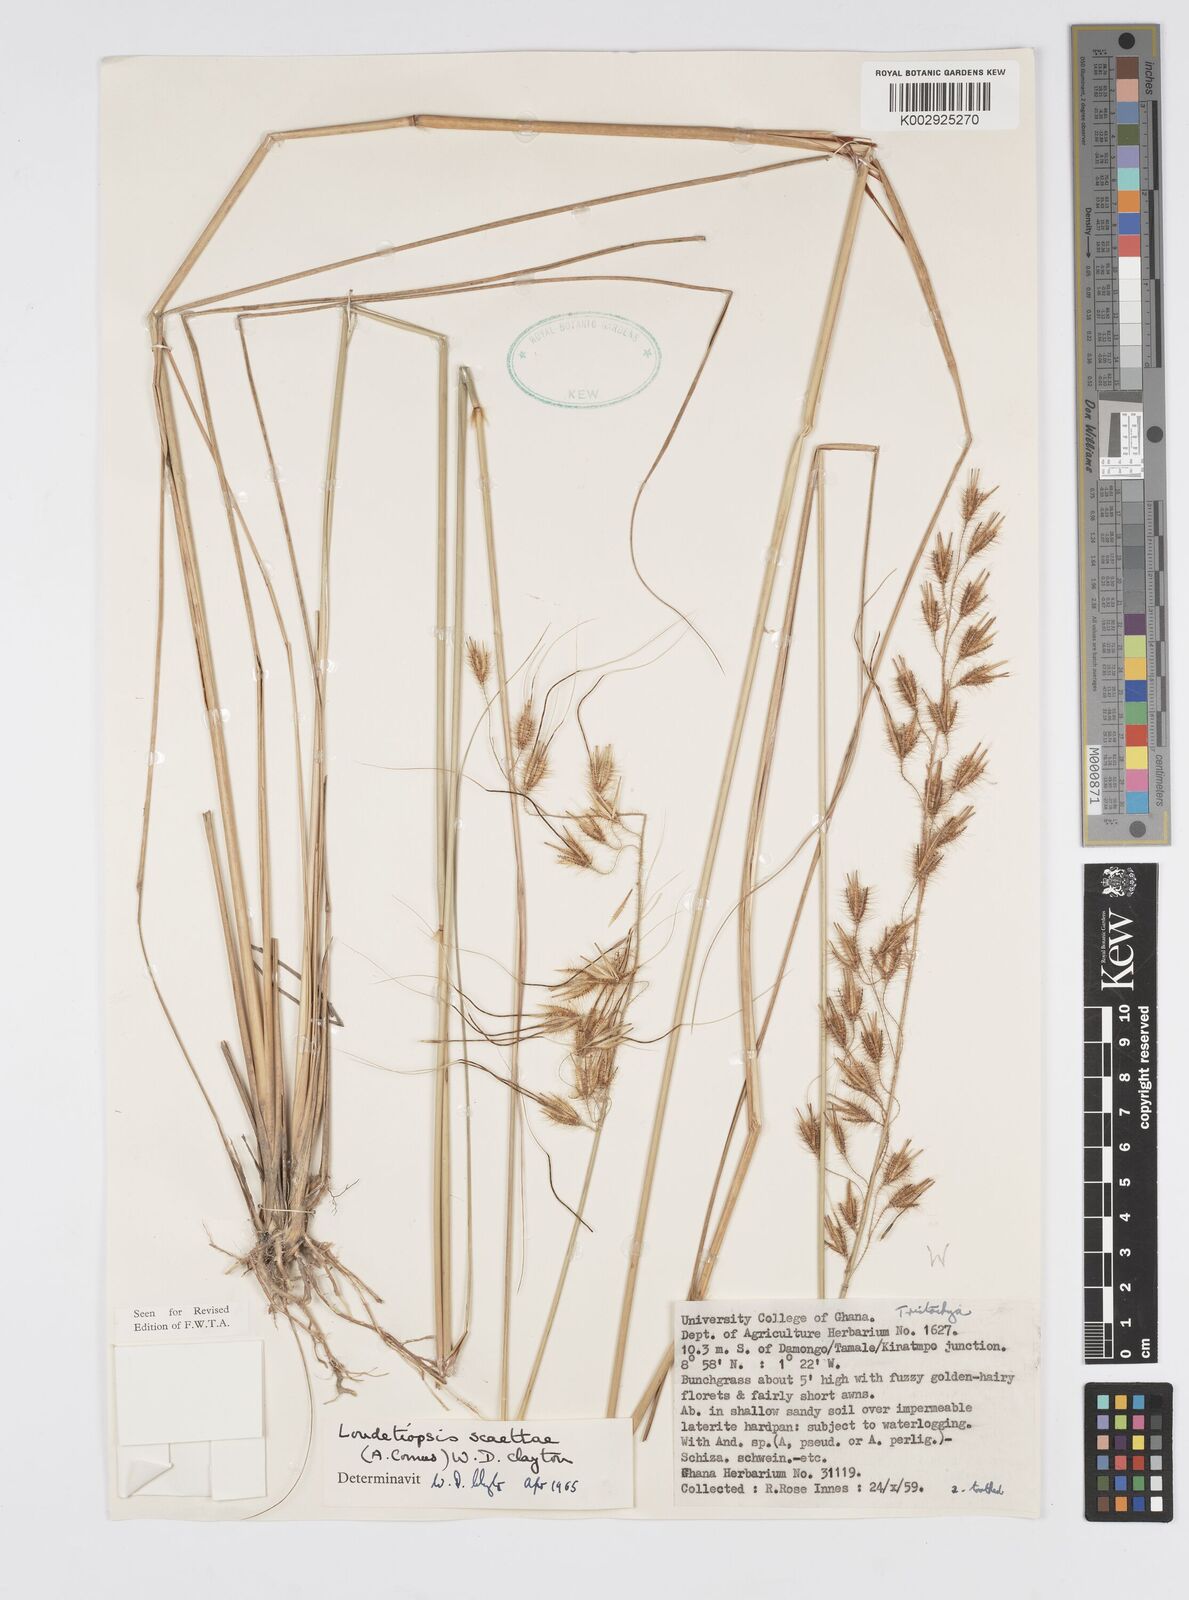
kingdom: Plantae
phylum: Tracheophyta
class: Liliopsida
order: Poales
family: Poaceae
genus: Loudetiopsis
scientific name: Loudetiopsis scaettae
